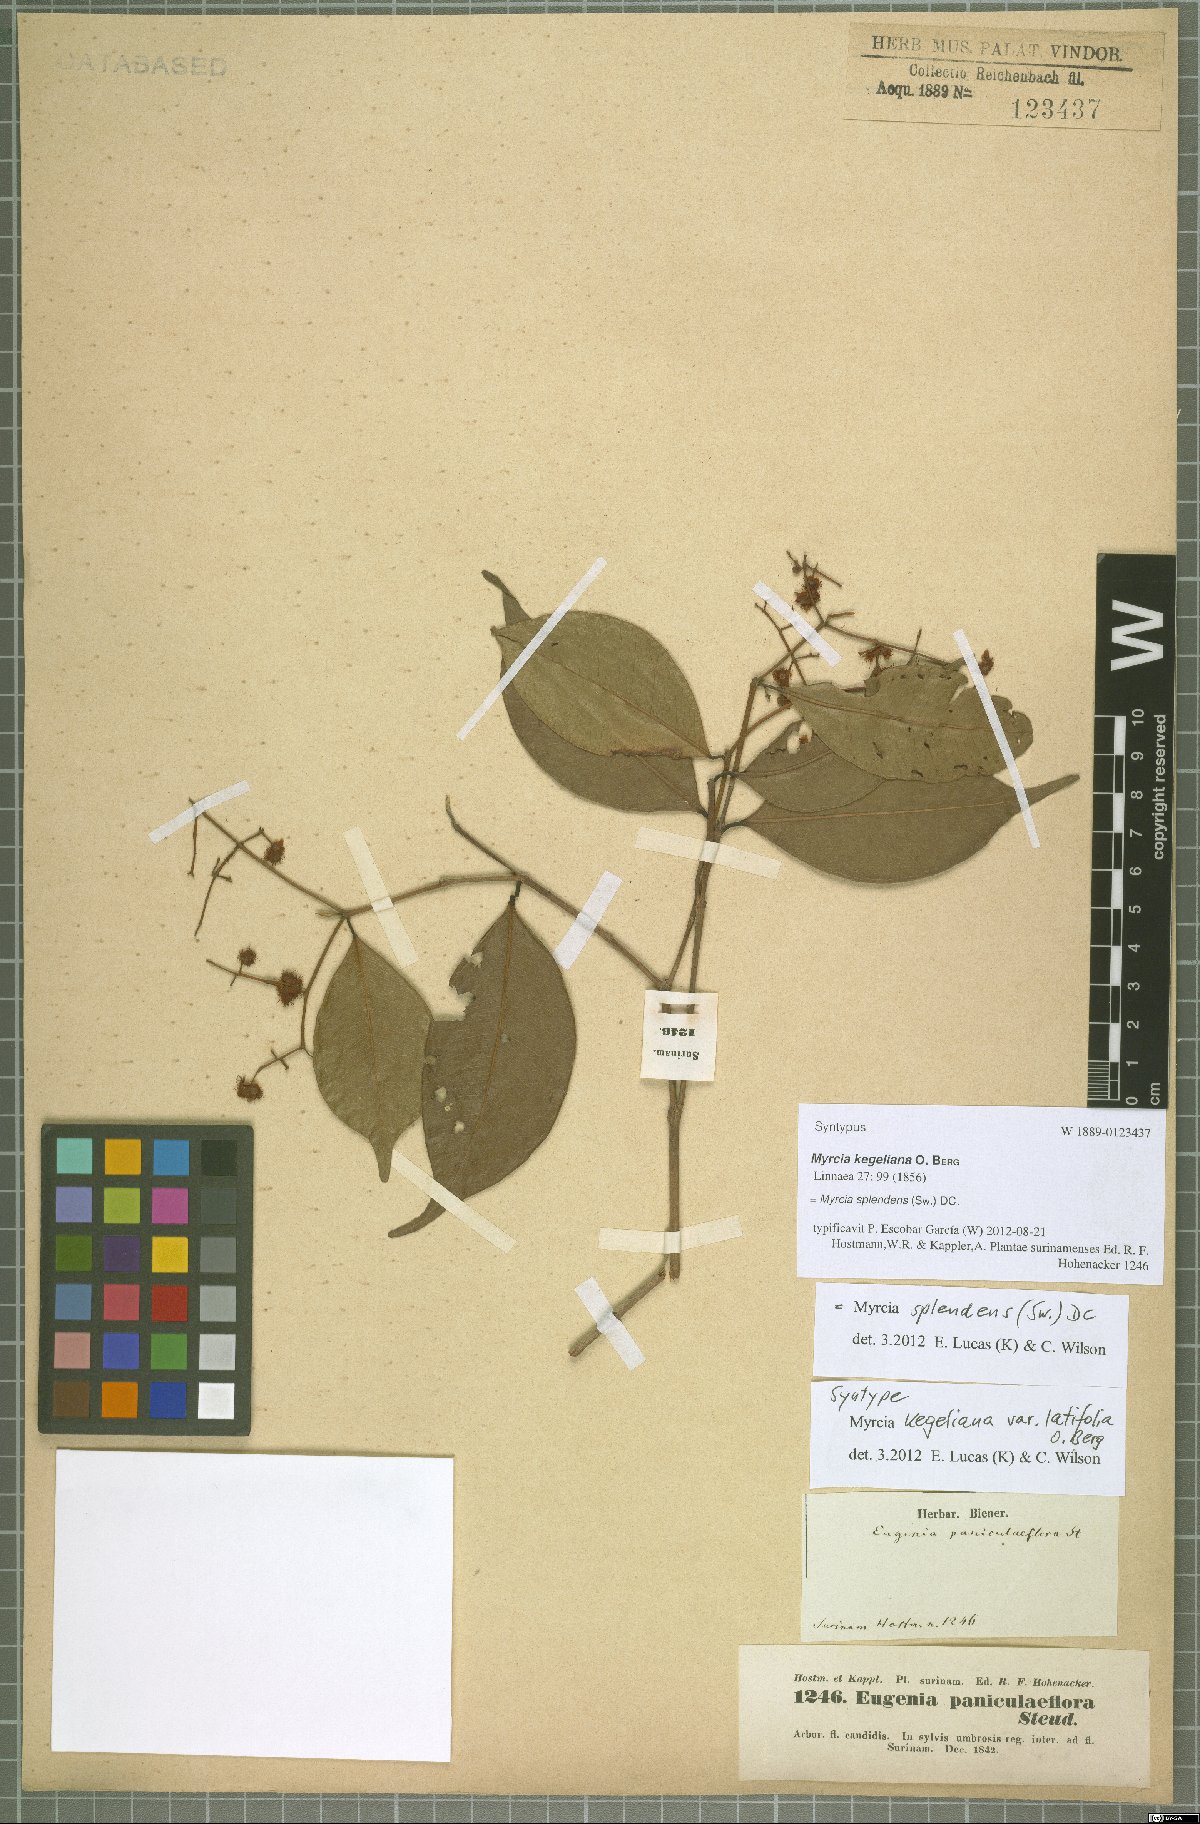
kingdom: Plantae
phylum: Tracheophyta
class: Magnoliopsida
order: Myrtales
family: Myrtaceae
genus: Myrcia
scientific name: Myrcia splendens
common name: Surinam cherry
